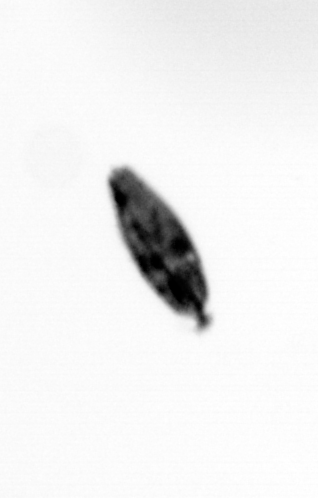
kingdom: Animalia
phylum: Arthropoda
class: Maxillopoda
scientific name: Maxillopoda
